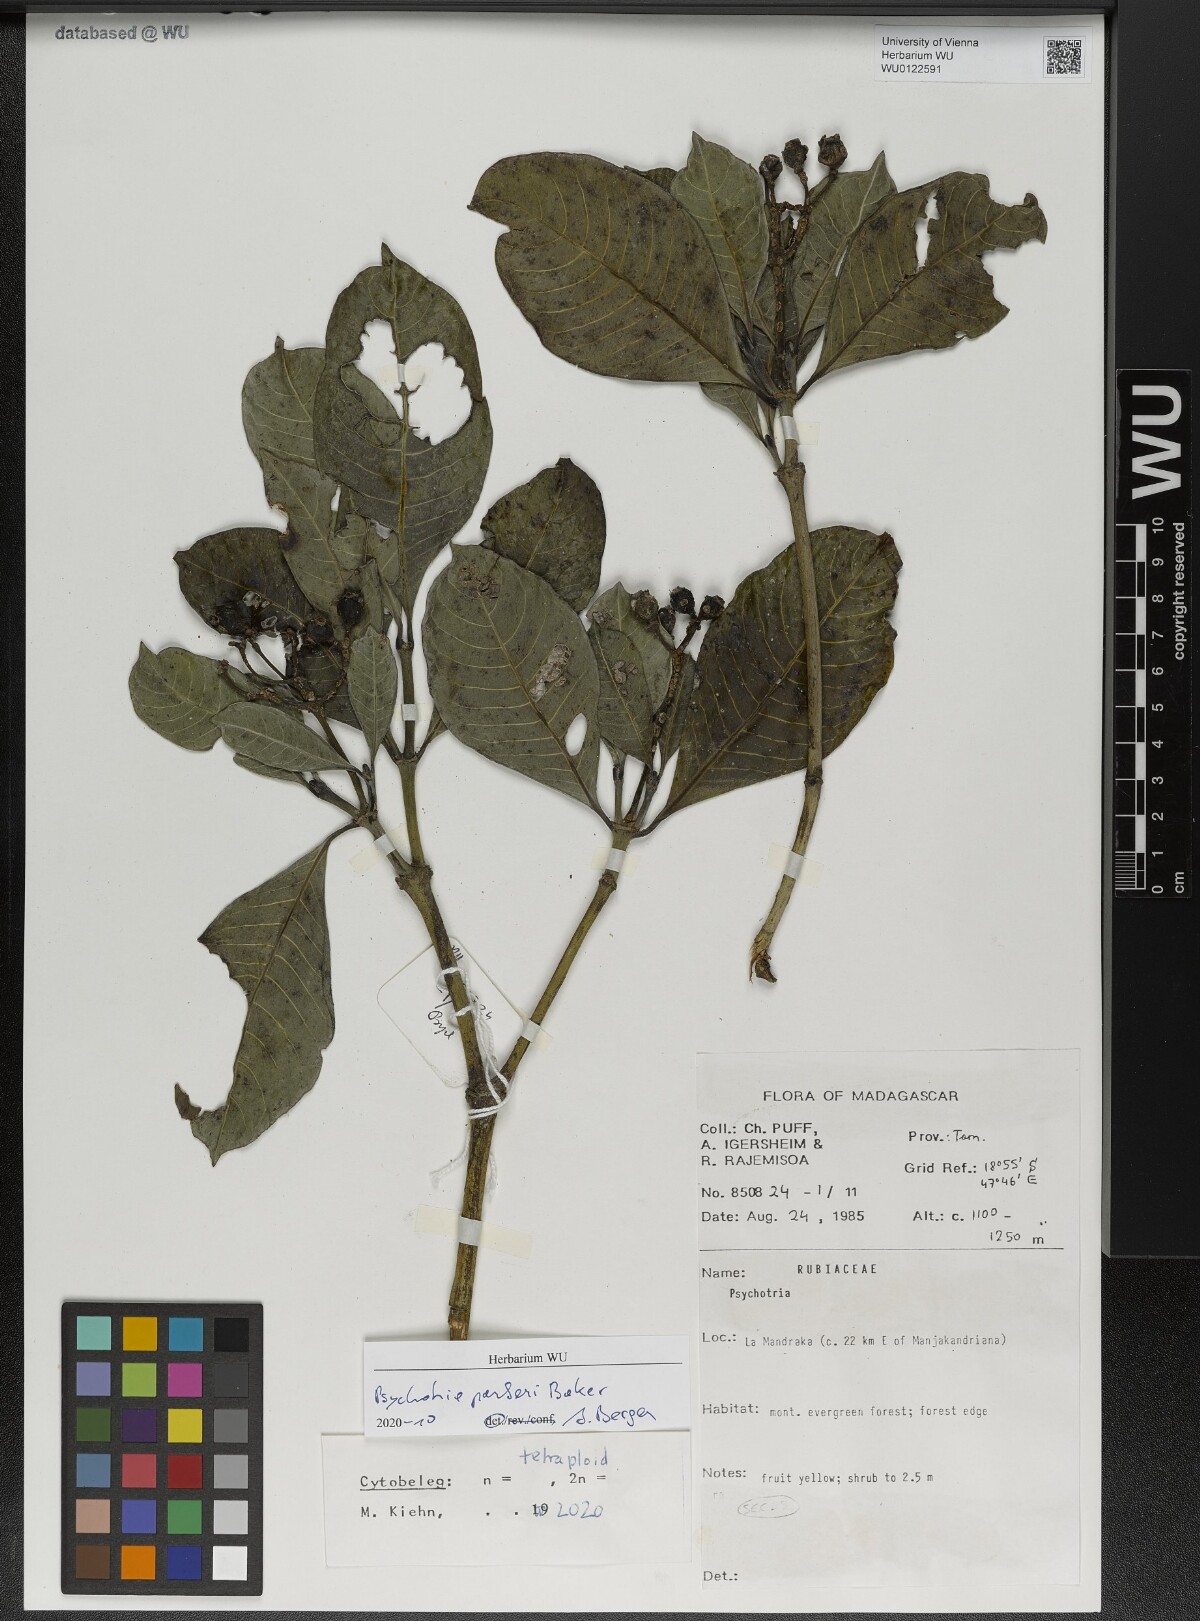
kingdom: Plantae
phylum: Tracheophyta
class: Magnoliopsida
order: Gentianales
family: Rubiaceae
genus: Psychotria
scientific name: Psychotria parkeri
